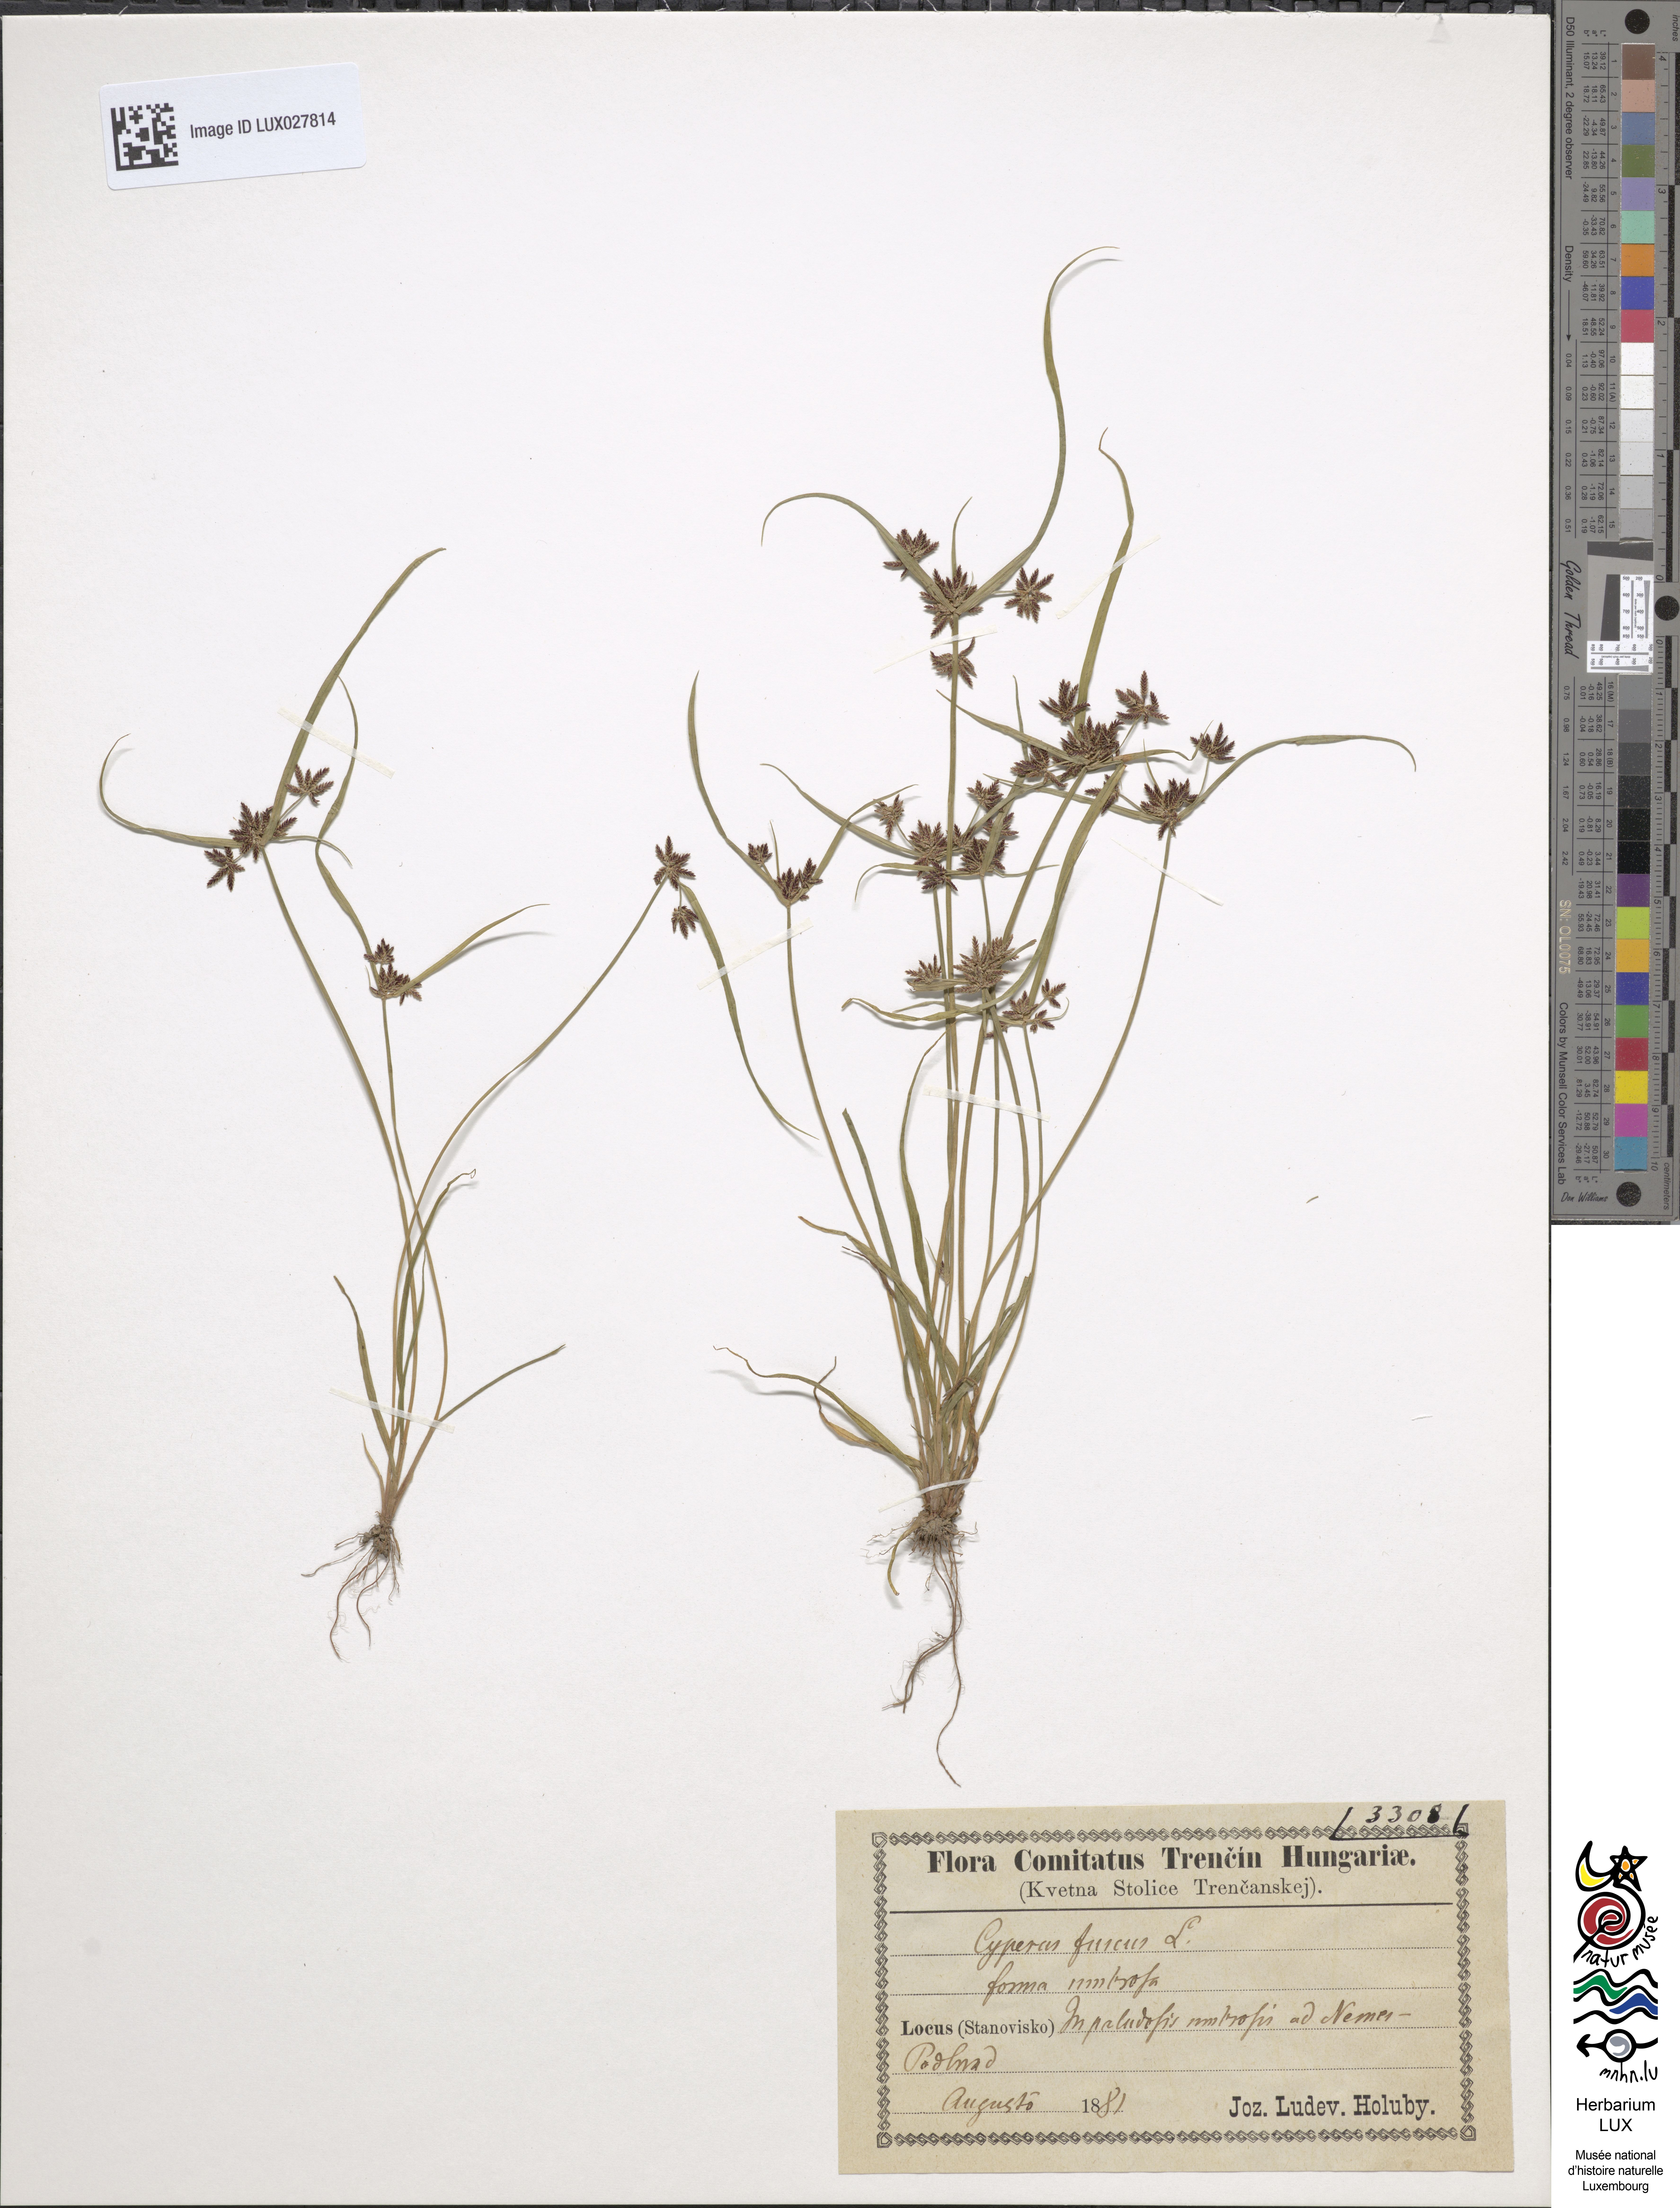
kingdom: Plantae
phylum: Tracheophyta
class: Liliopsida
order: Poales
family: Cyperaceae
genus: Cyperus
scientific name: Cyperus fuscus
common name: Brown galingale
